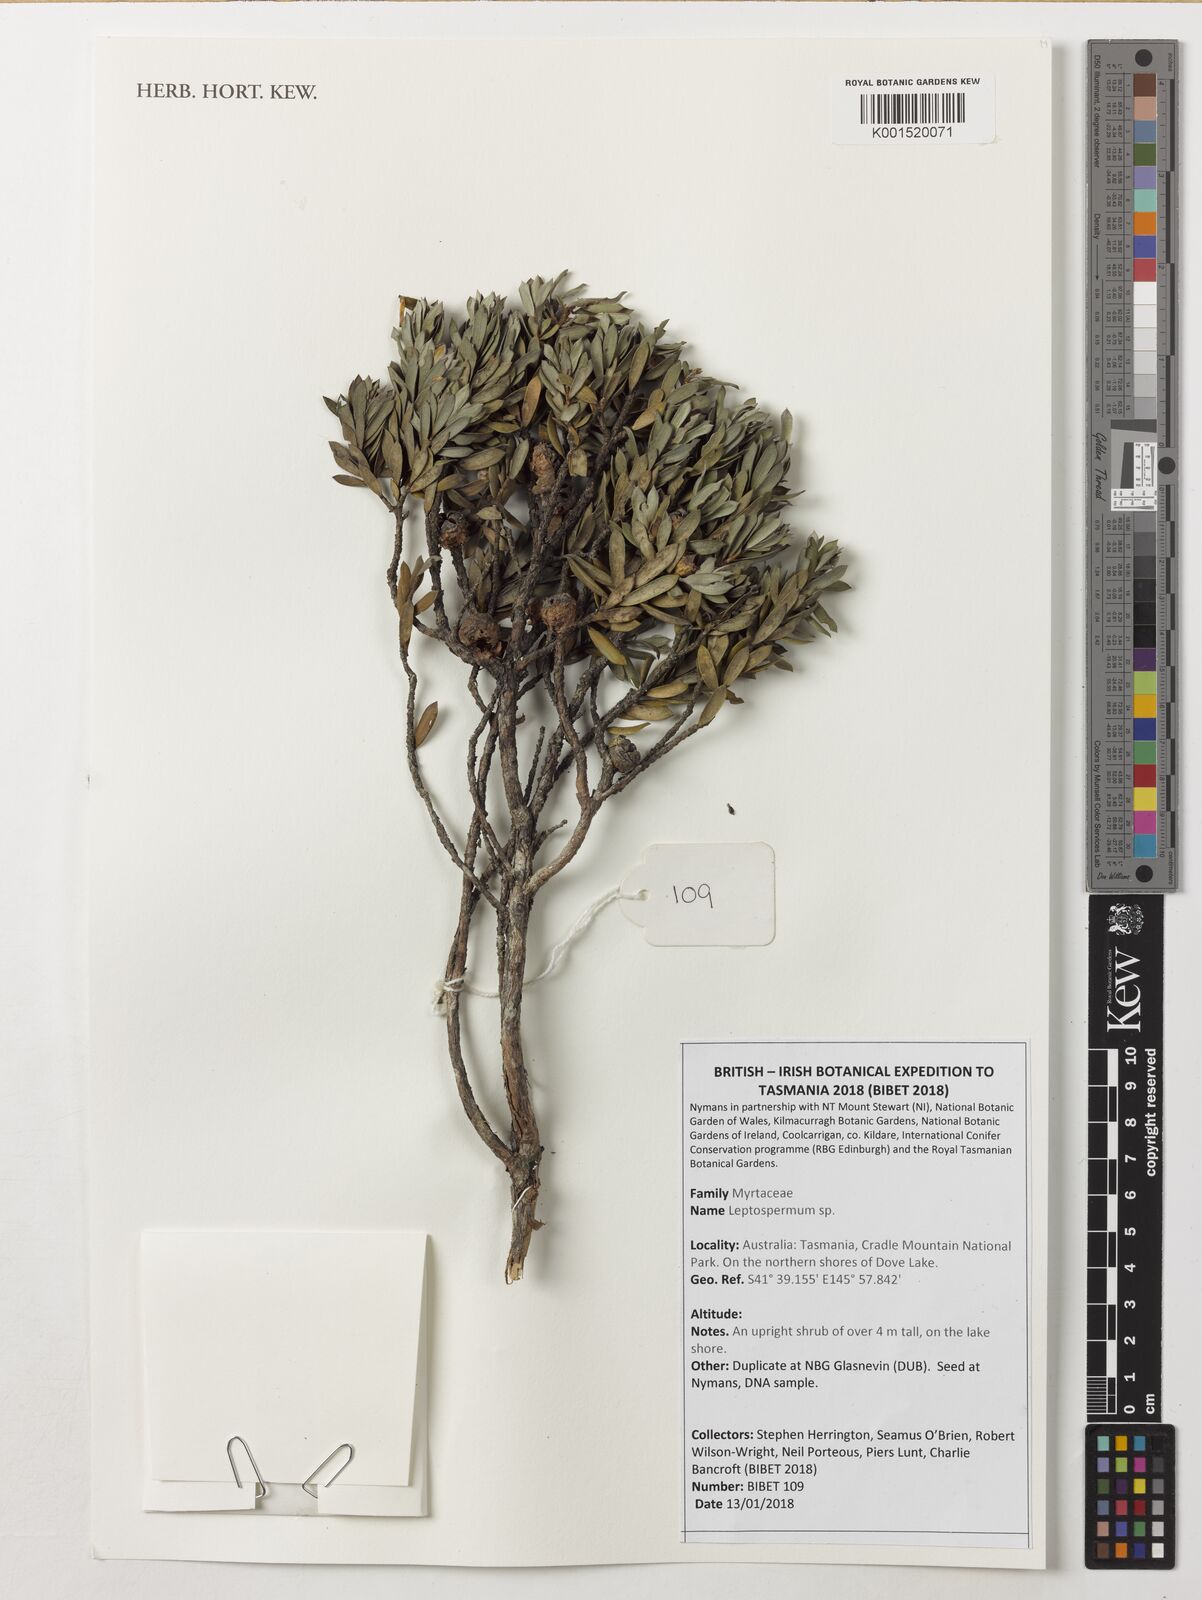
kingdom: Plantae
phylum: Tracheophyta
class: Magnoliopsida
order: Myrtales
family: Myrtaceae
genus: Leptospermum
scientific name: Leptospermum
